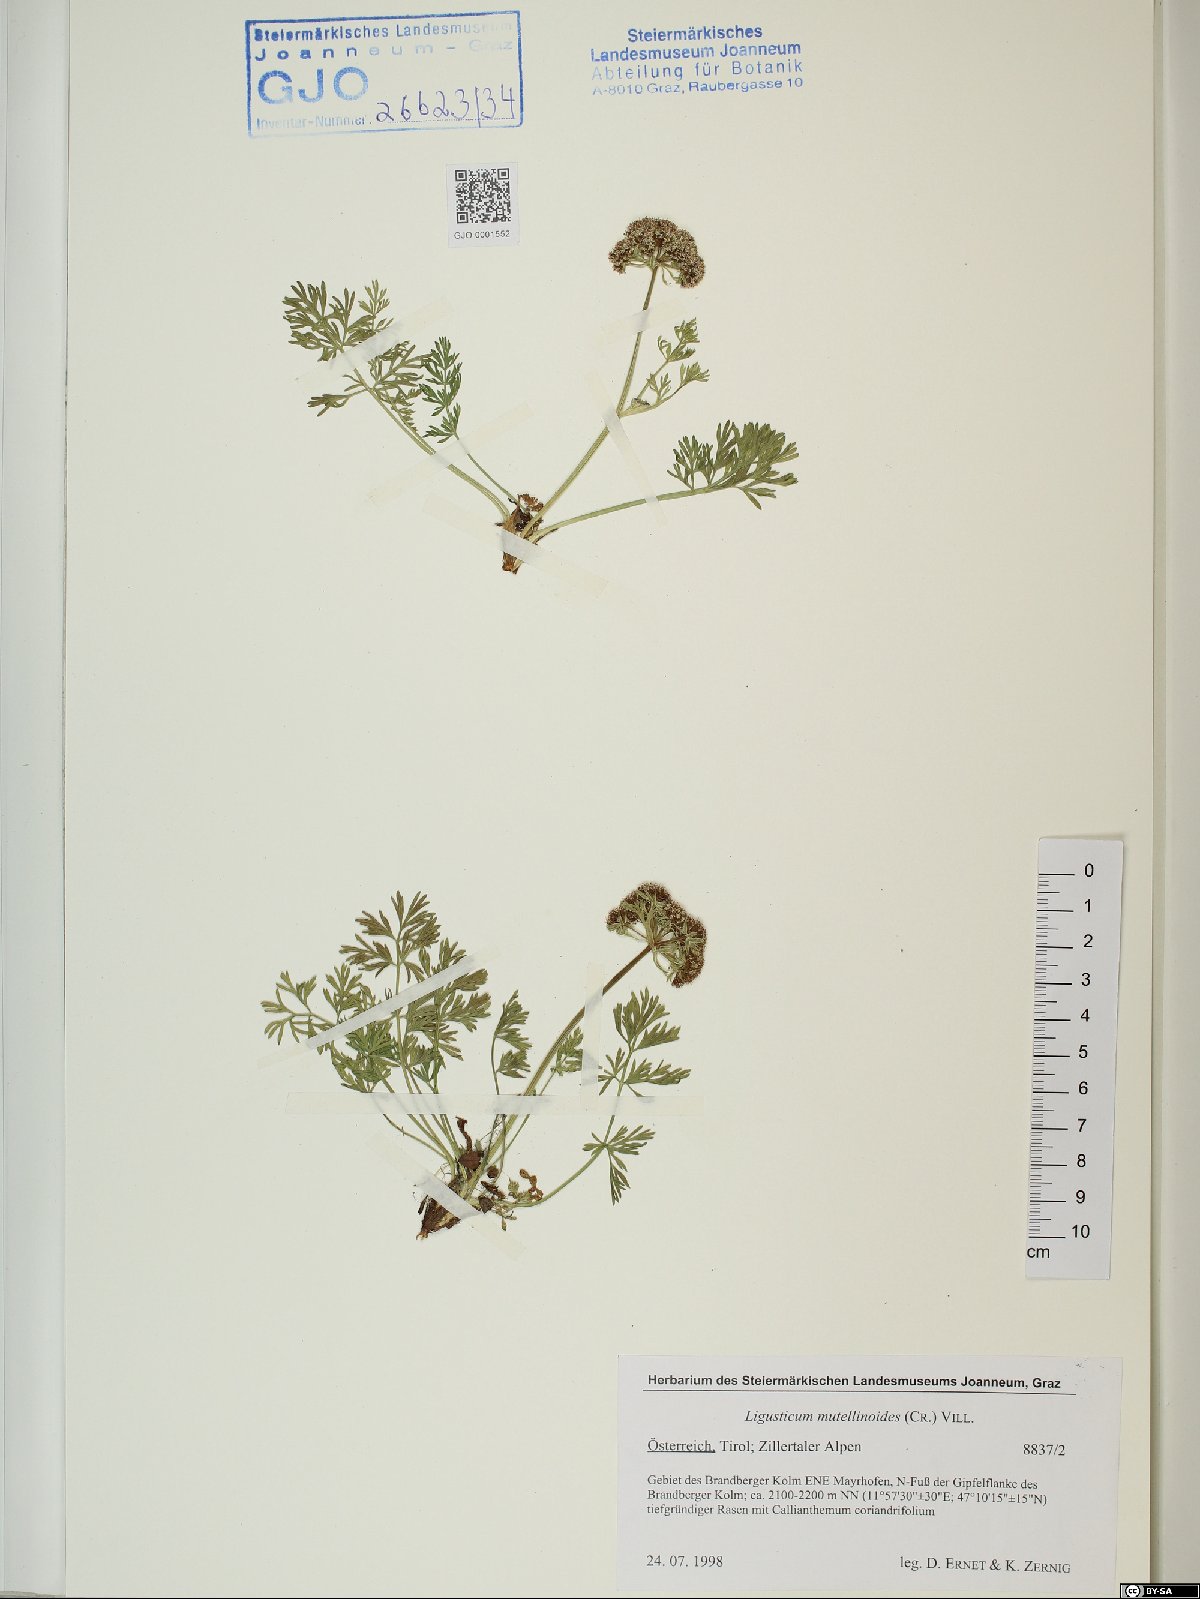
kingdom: Plantae
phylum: Tracheophyta
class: Magnoliopsida
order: Apiales
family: Apiaceae
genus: Pachypleurum
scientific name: Pachypleurum mutellinoides
